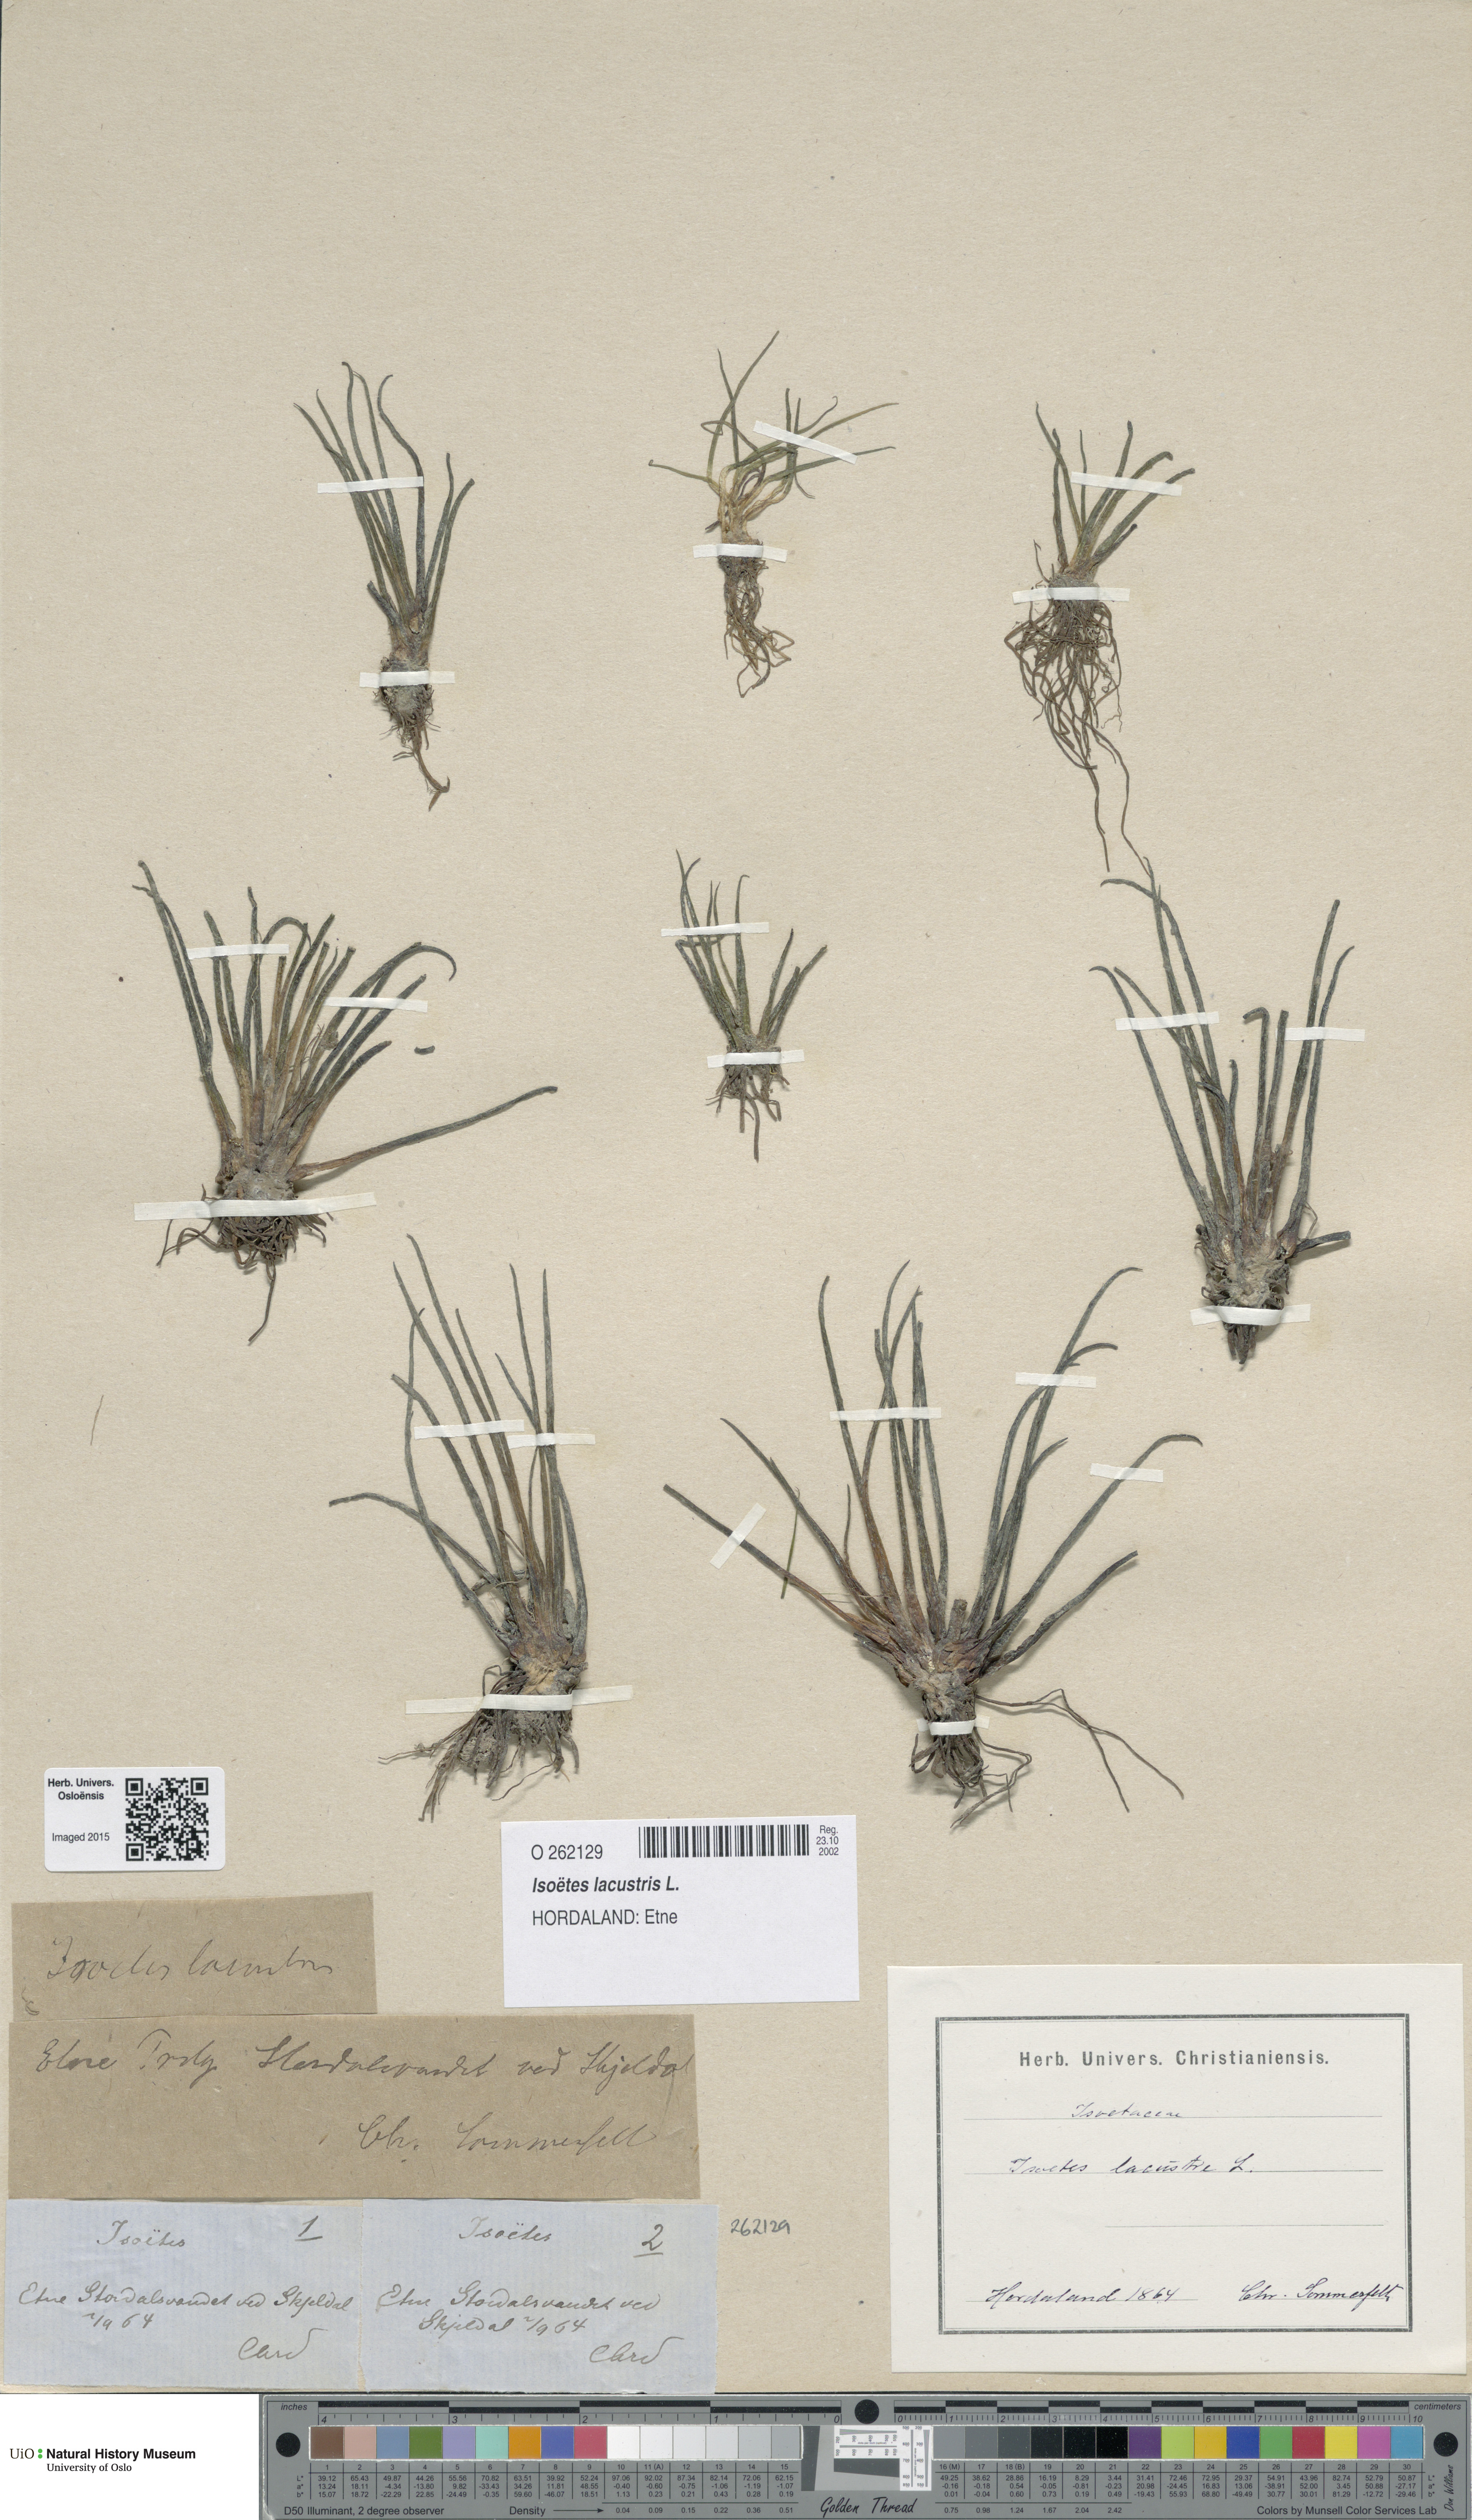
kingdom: Plantae
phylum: Tracheophyta
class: Lycopodiopsida
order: Isoetales
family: Isoetaceae
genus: Isoetes
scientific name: Isoetes lacustris
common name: Common quillwort
